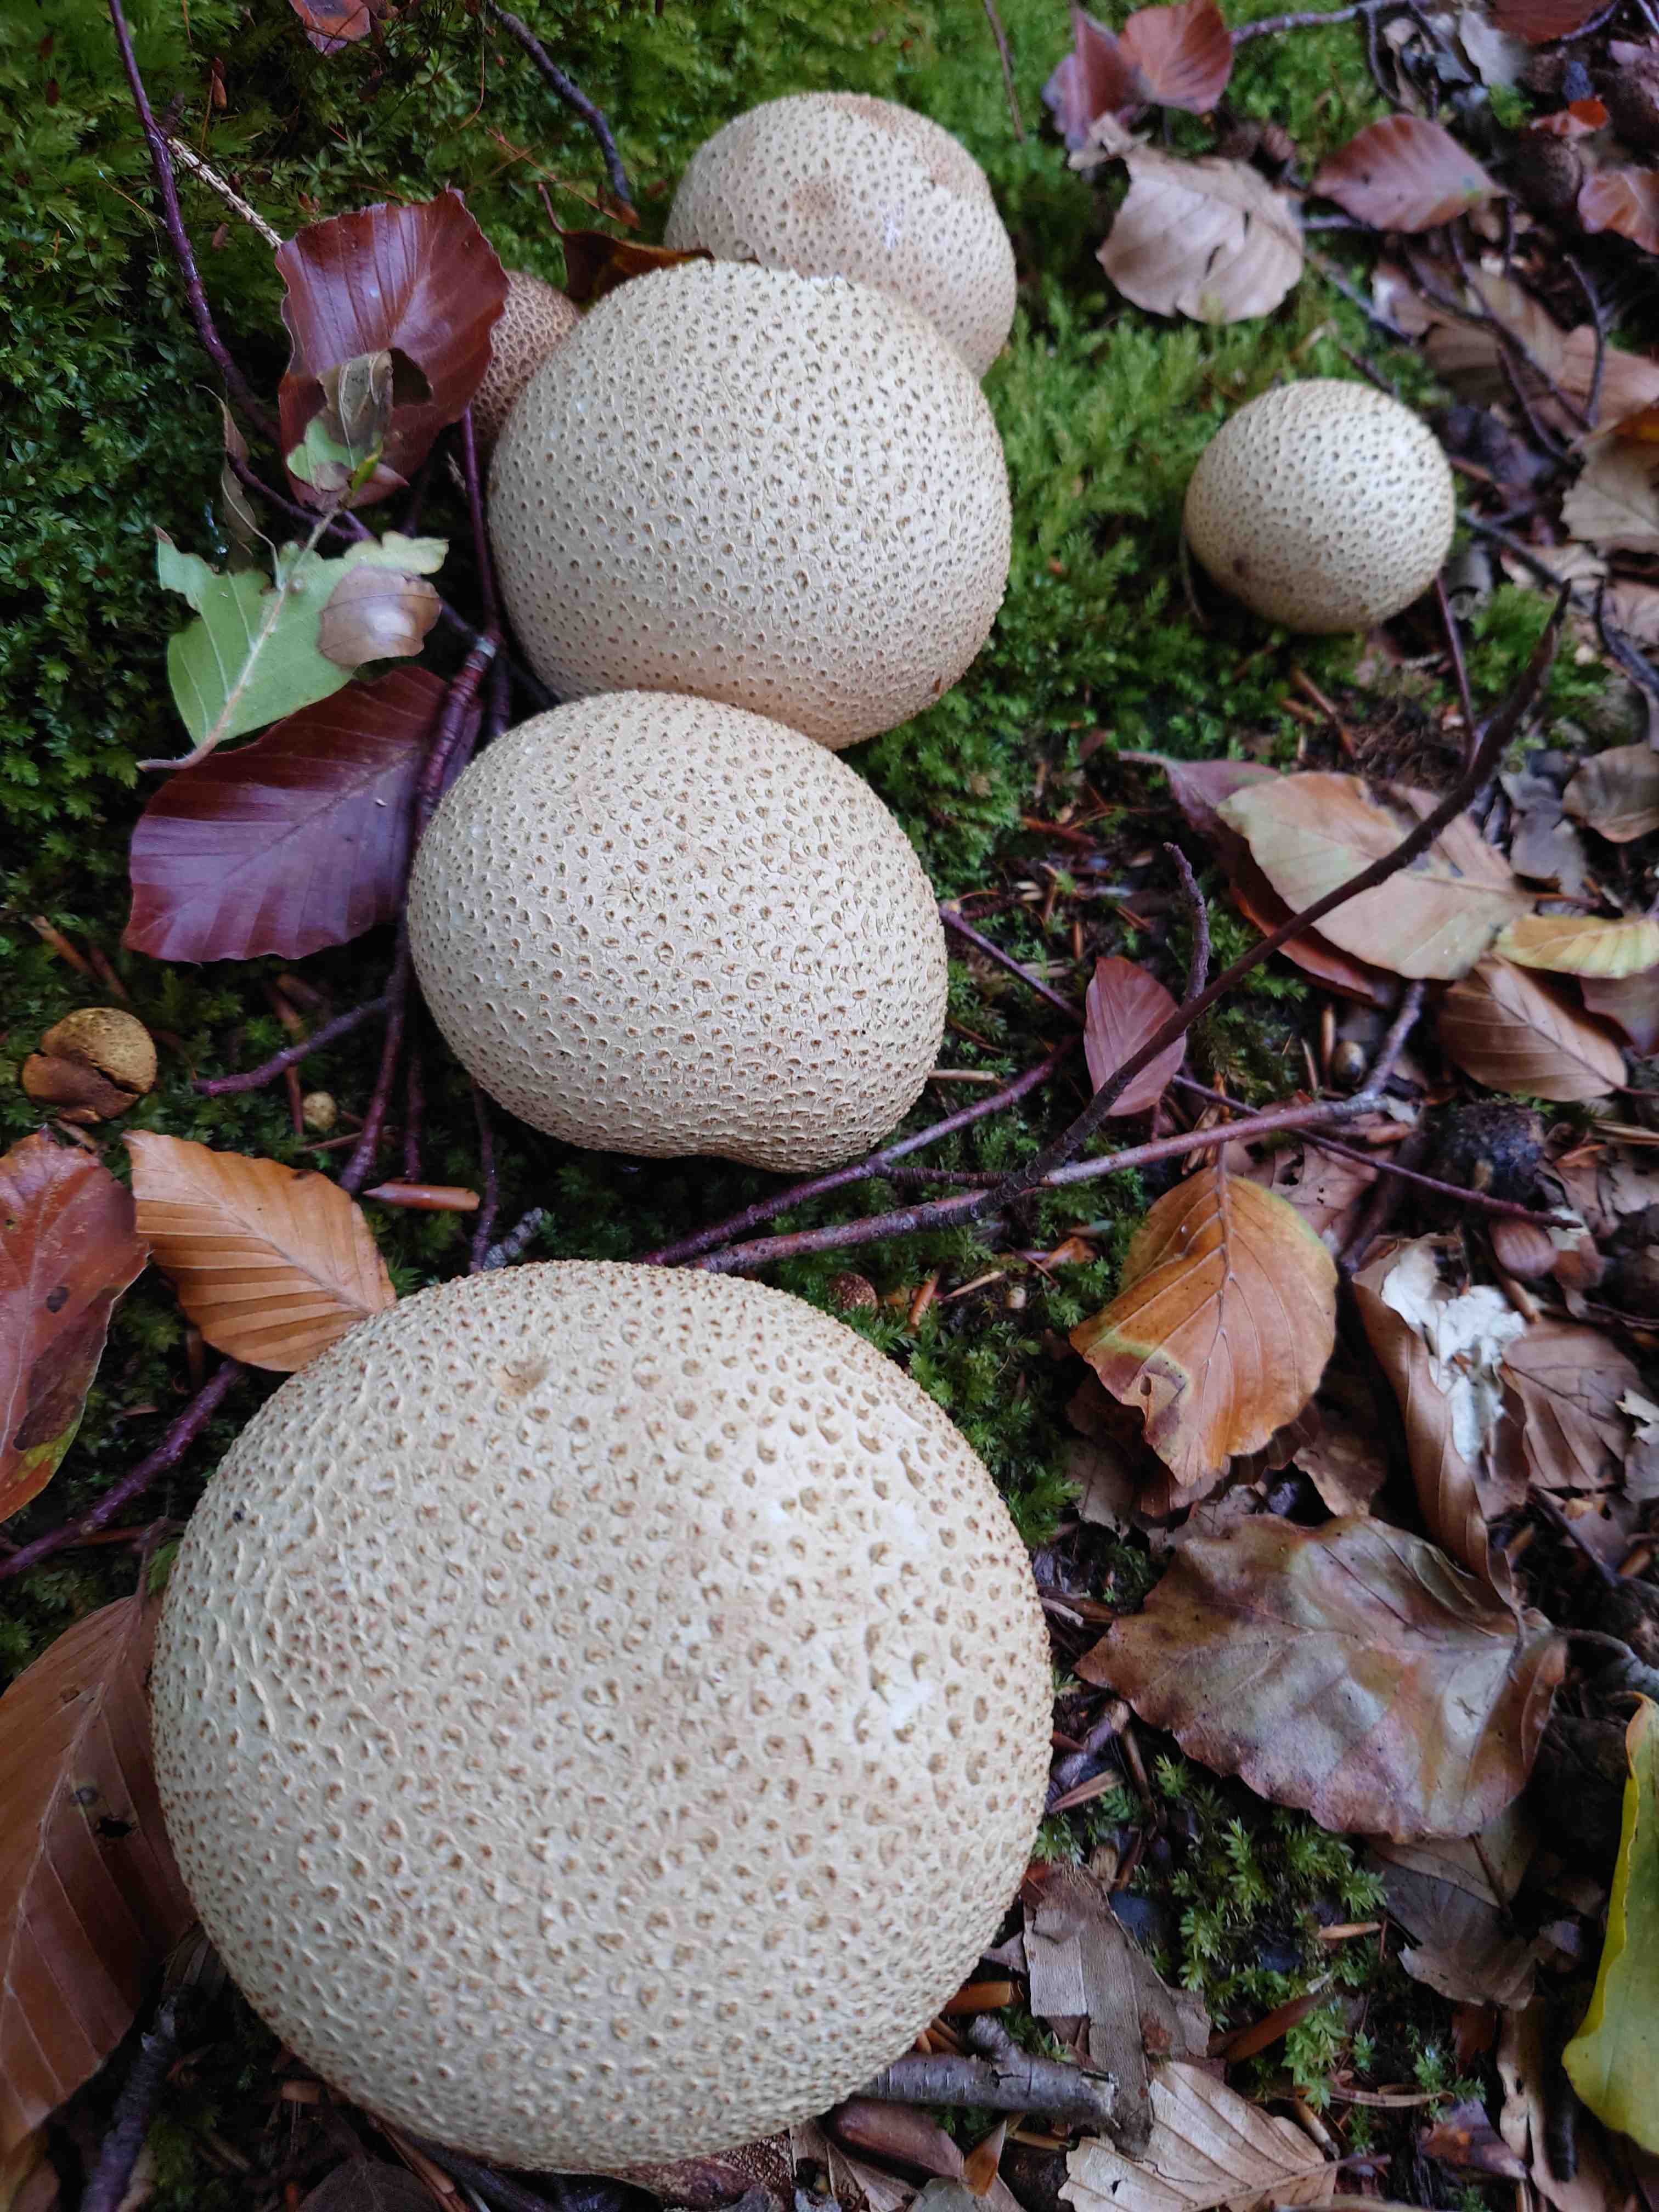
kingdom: Fungi
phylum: Basidiomycota
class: Agaricomycetes
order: Boletales
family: Sclerodermataceae
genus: Scleroderma
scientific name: Scleroderma citrinum
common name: almindelig bruskbold
